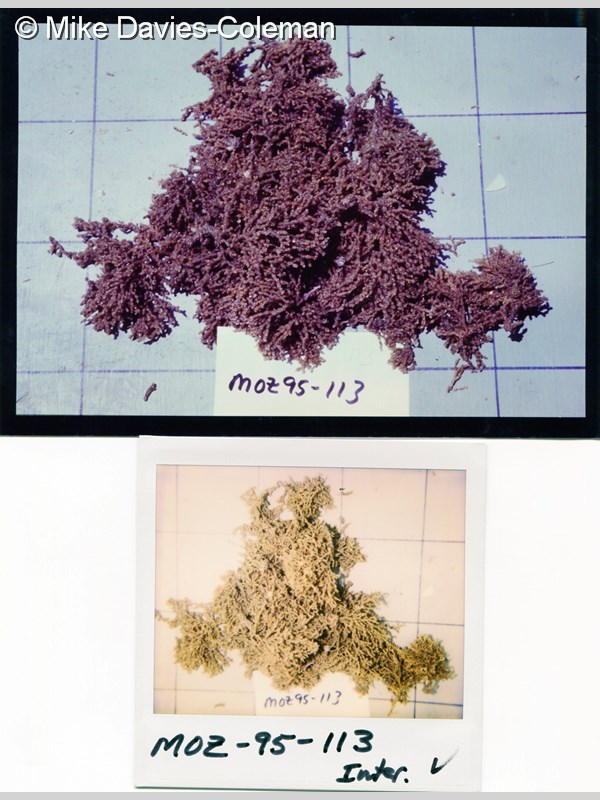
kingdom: Animalia
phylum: Bryozoa
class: Gymnolaemata
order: Cheilostomatida
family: Margarettidae
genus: Margaretta
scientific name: Margaretta levinseni
